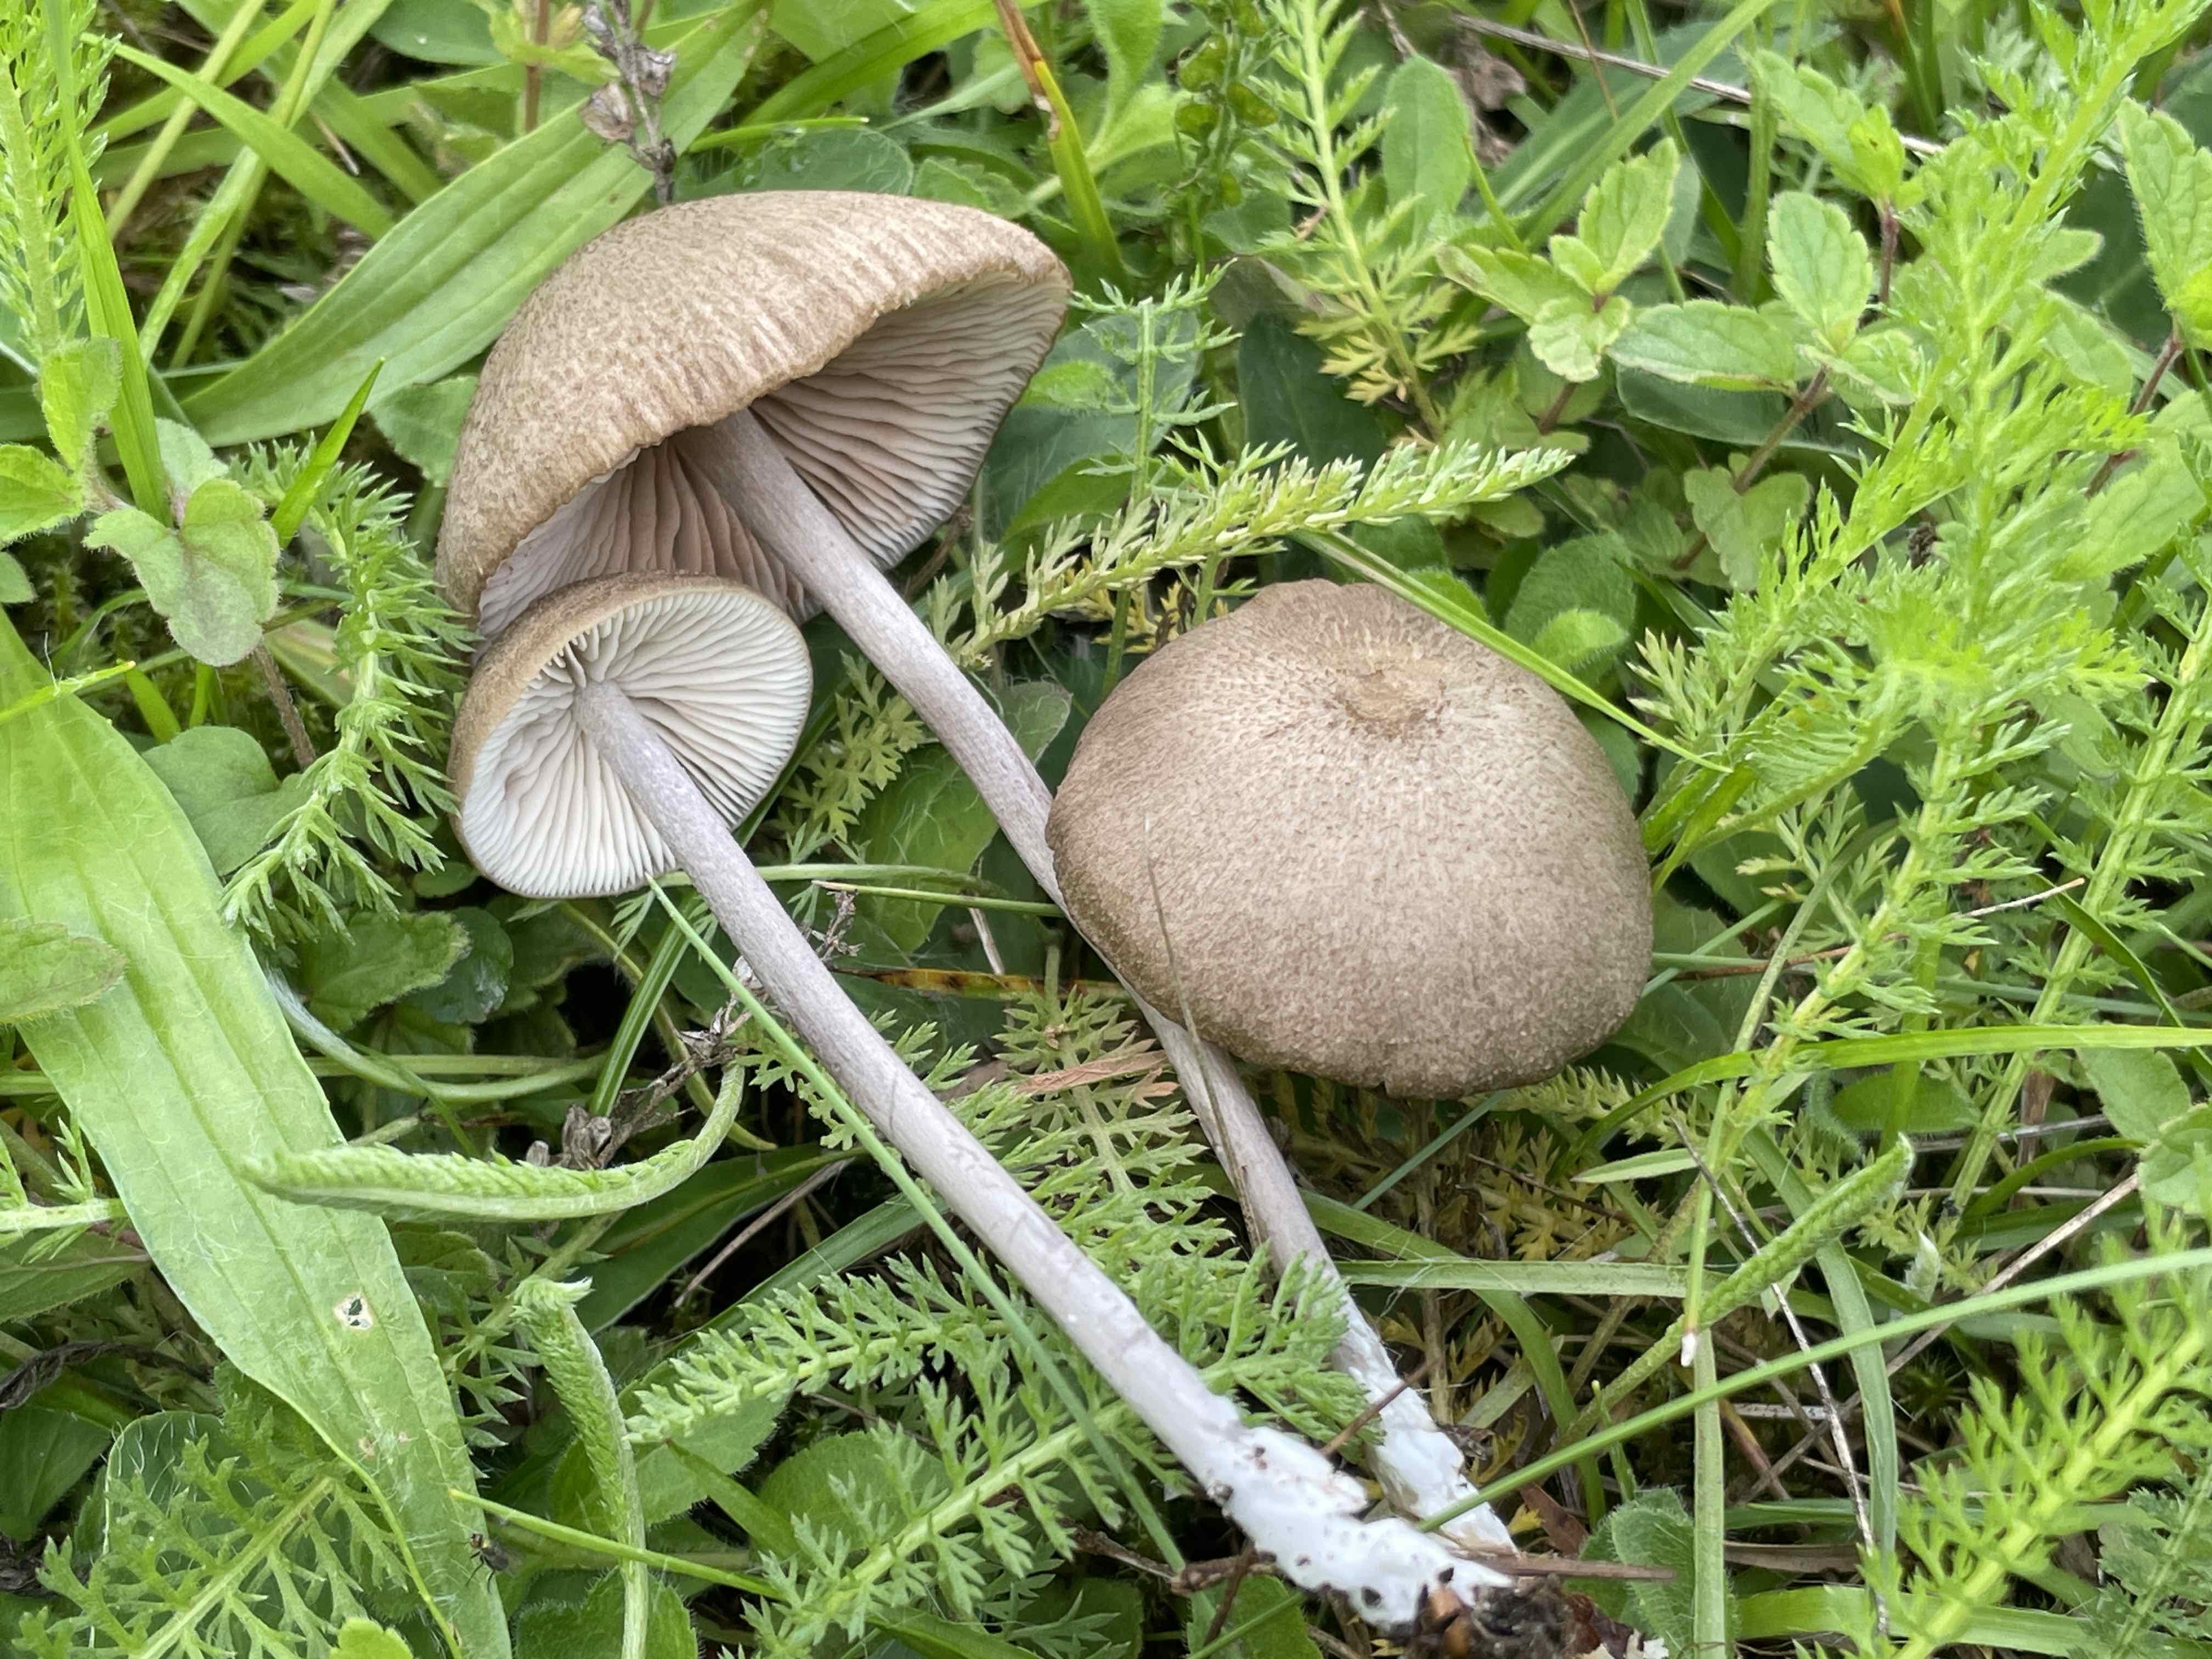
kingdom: Fungi
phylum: Basidiomycota
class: Agaricomycetes
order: Agaricales
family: Entolomataceae
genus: Entoloma
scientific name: Entoloma griseocyaneum
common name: gråblå rødblad
